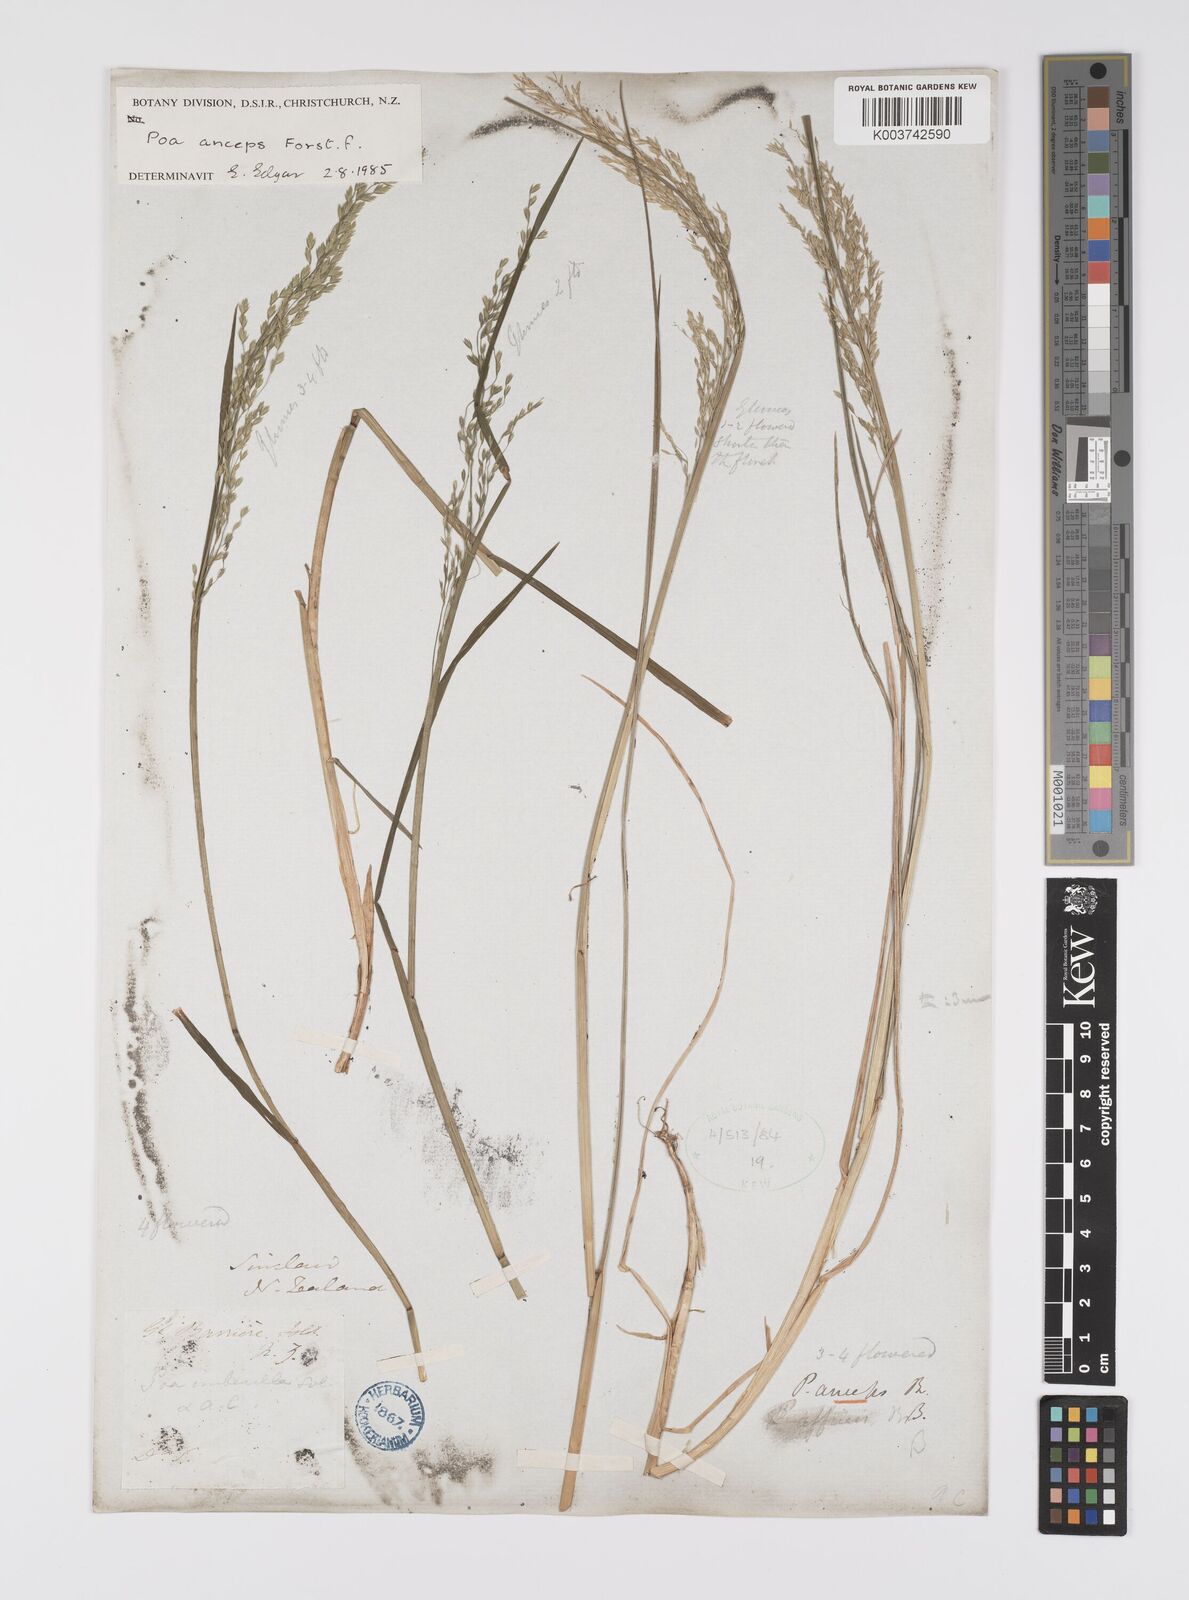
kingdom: Plantae
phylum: Tracheophyta
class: Liliopsida
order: Poales
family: Poaceae
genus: Poa
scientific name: Poa anceps
